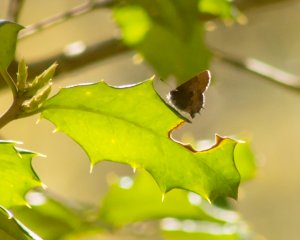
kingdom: Animalia
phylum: Arthropoda
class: Insecta
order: Lepidoptera
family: Lycaenidae
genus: Incisalia
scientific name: Incisalia henrici
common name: Henry's Elfin
